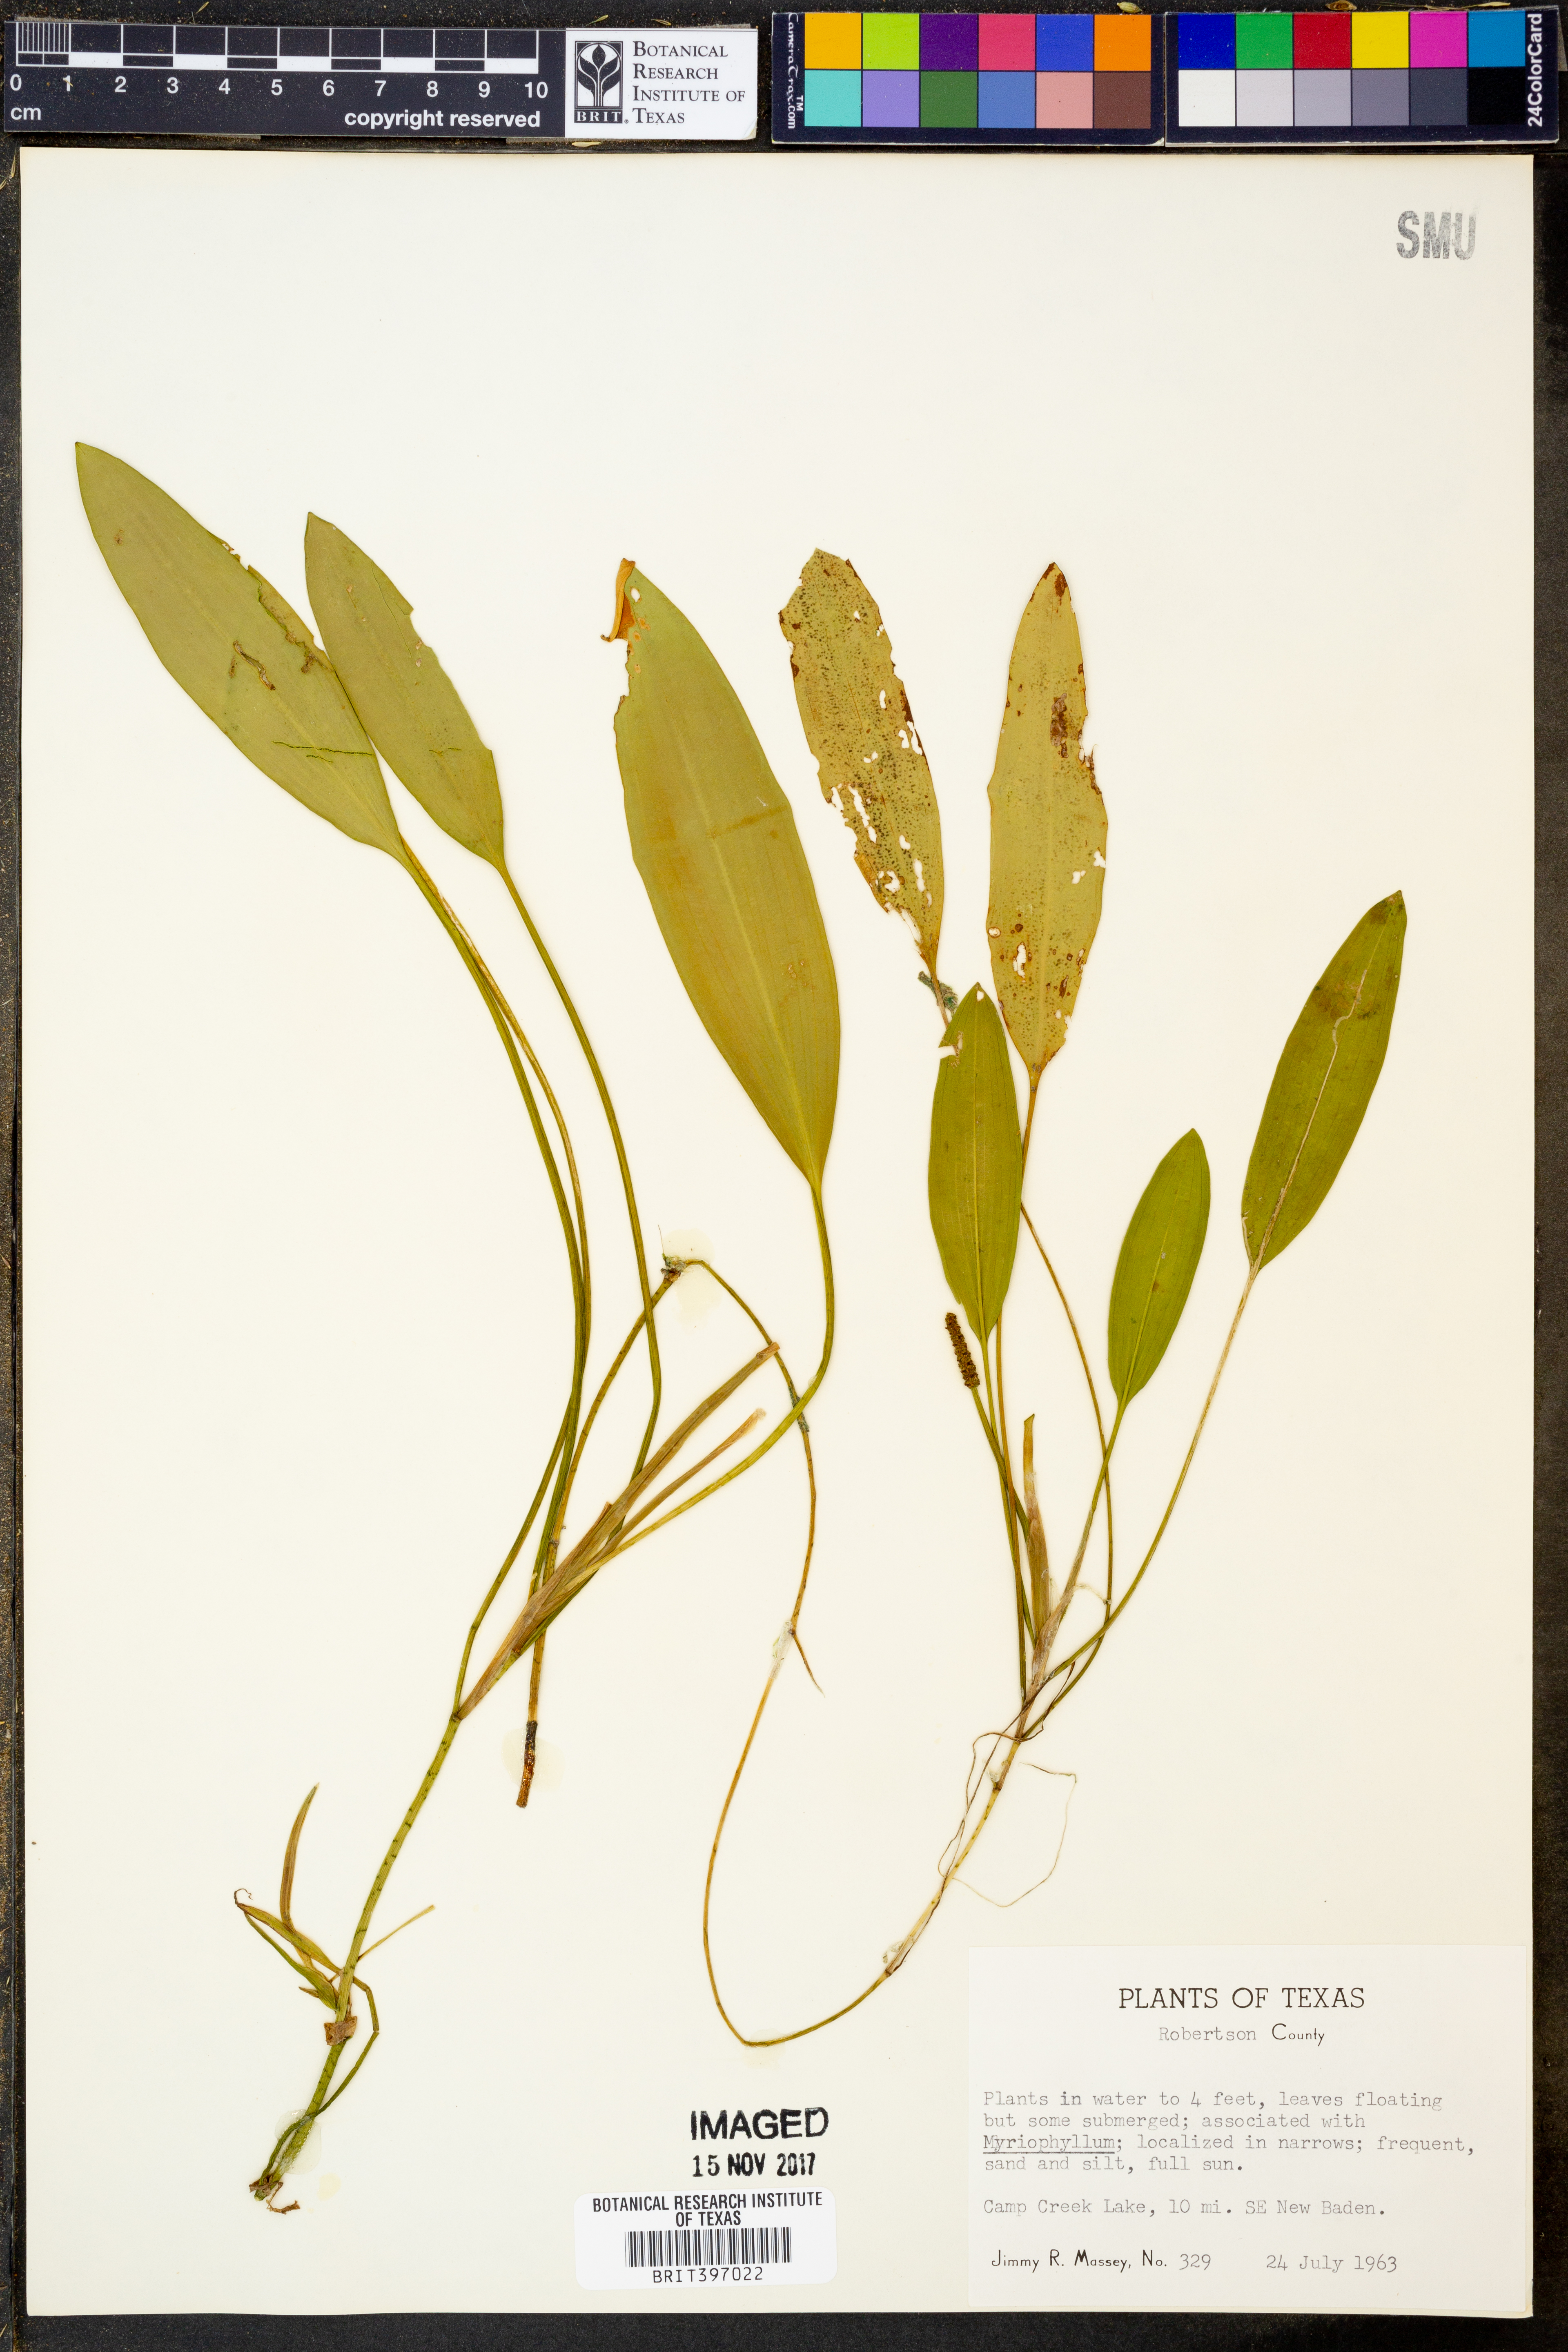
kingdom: Plantae
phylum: Tracheophyta
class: Liliopsida
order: Alismatales
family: Potamogetonaceae
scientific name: Potamogetonaceae
